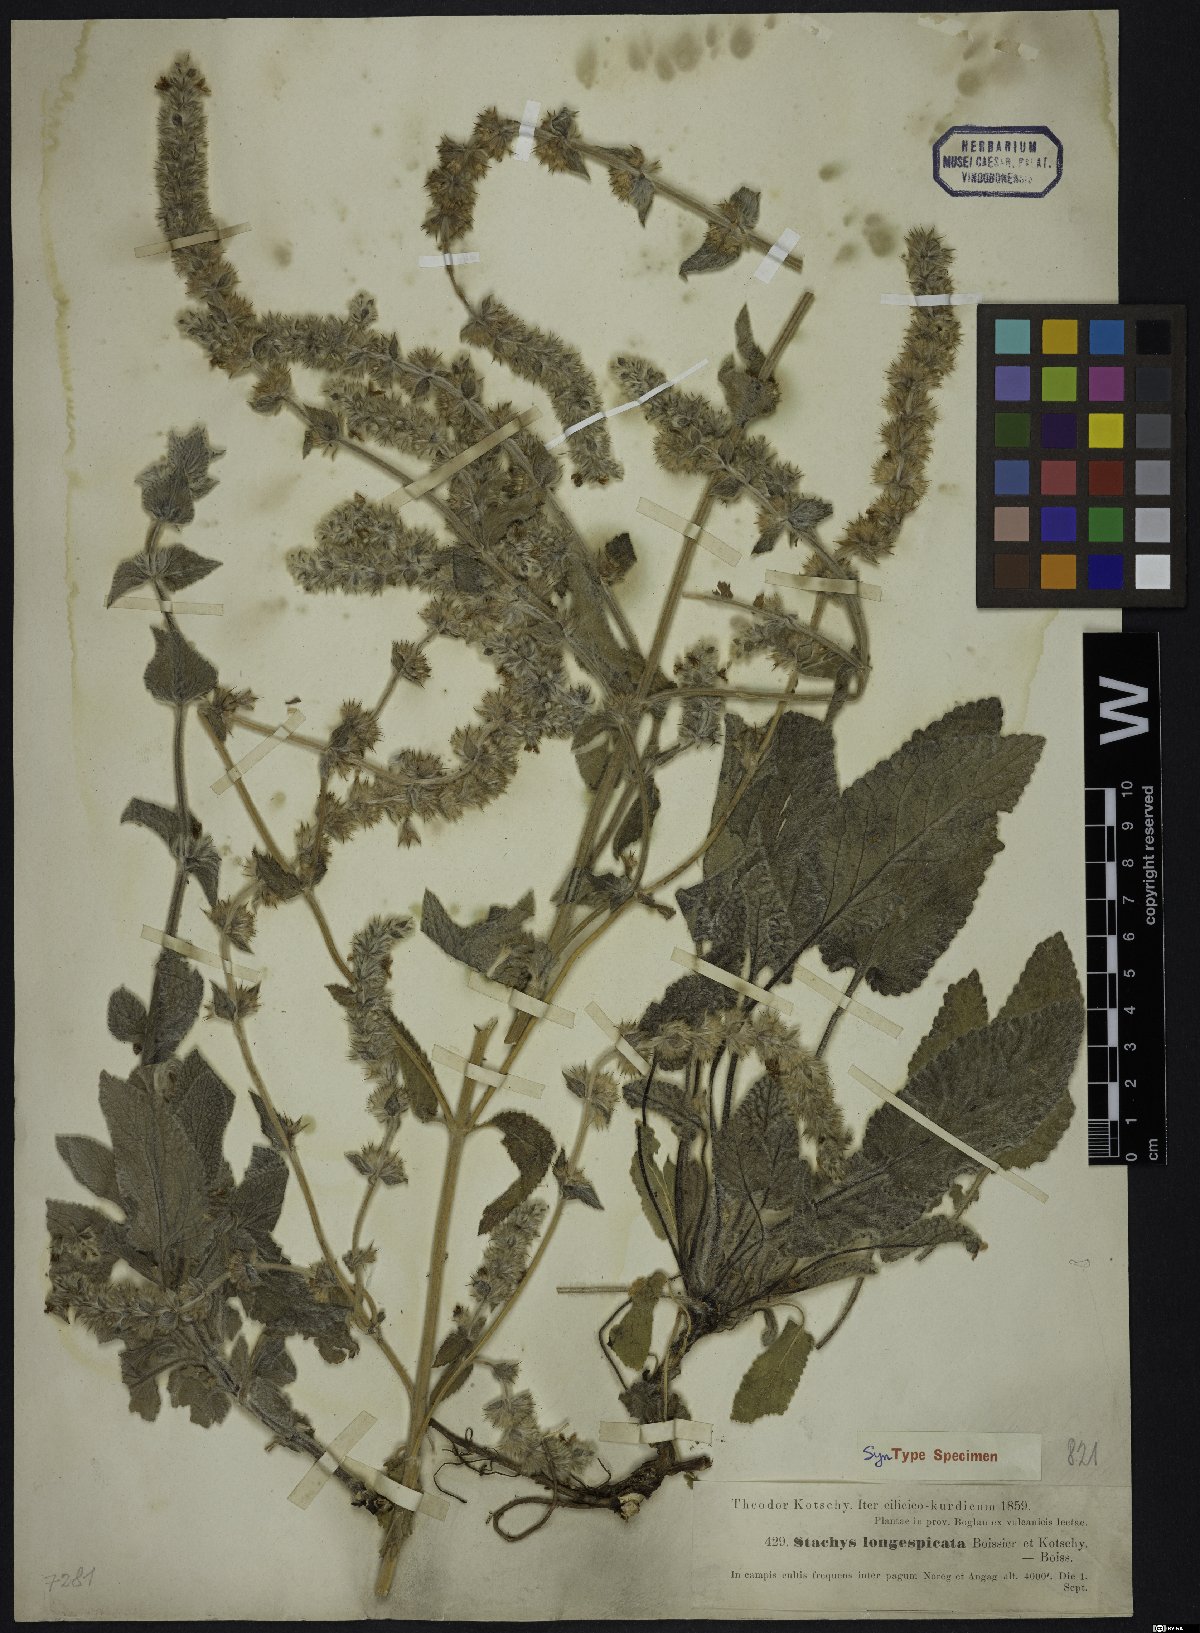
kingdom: Plantae
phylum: Tracheophyta
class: Magnoliopsida
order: Lamiales
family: Lamiaceae
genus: Stachys
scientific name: Stachys longispicata
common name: Longspike hedgenettle
